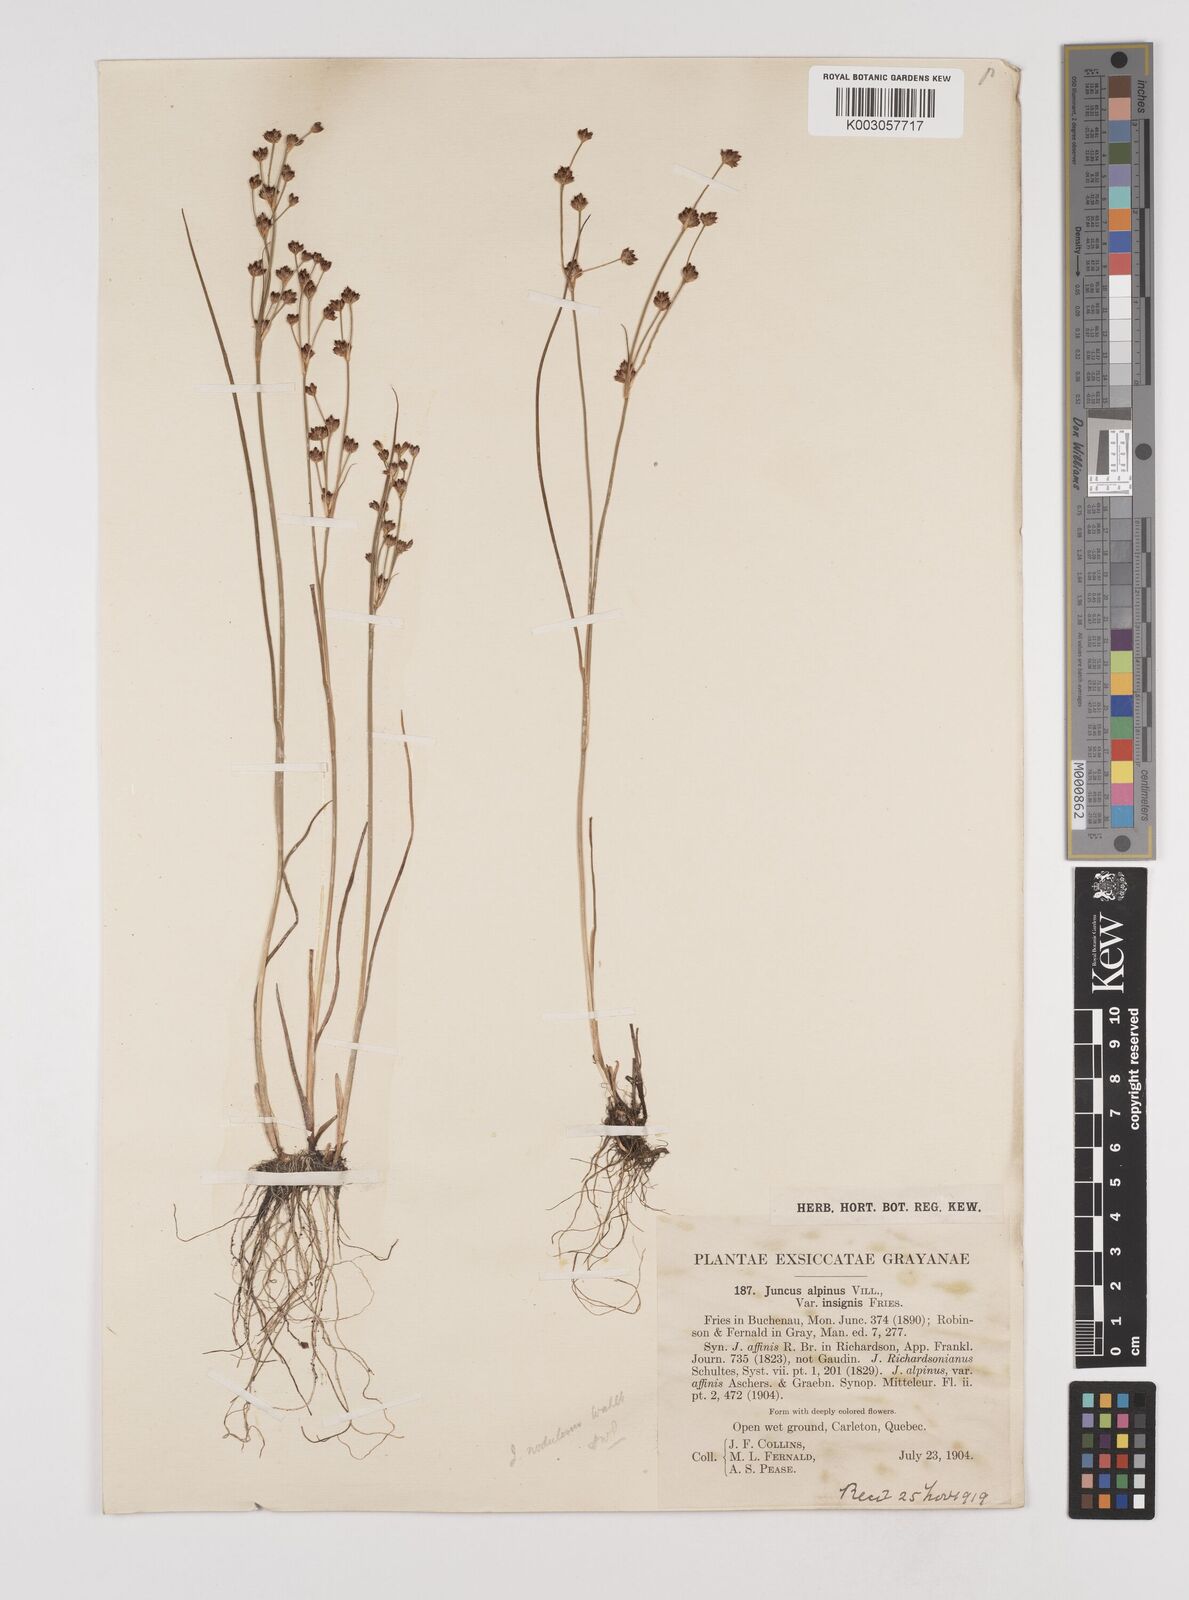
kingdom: Plantae
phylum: Tracheophyta
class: Liliopsida
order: Poales
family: Juncaceae
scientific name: Juncaceae
